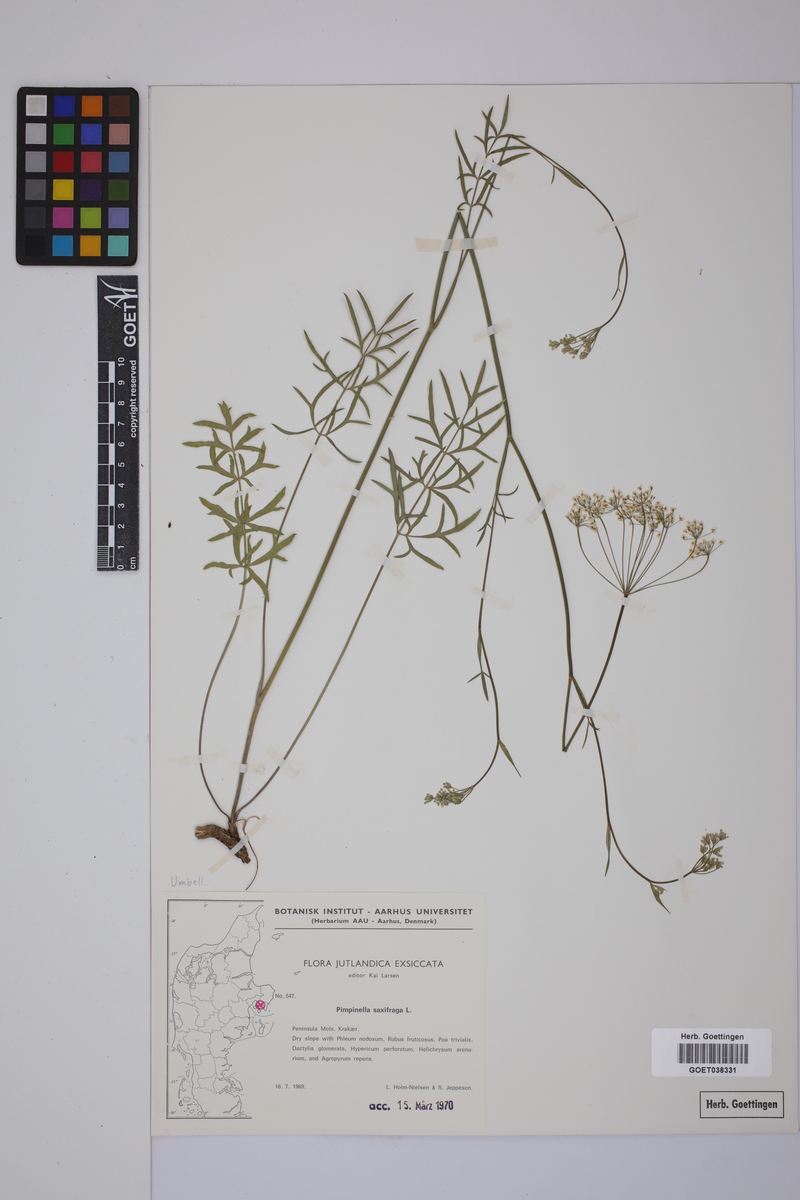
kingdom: Plantae
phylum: Tracheophyta
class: Magnoliopsida
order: Apiales
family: Apiaceae
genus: Pimpinella
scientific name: Pimpinella saxifraga
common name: Burnet-saxifrage
